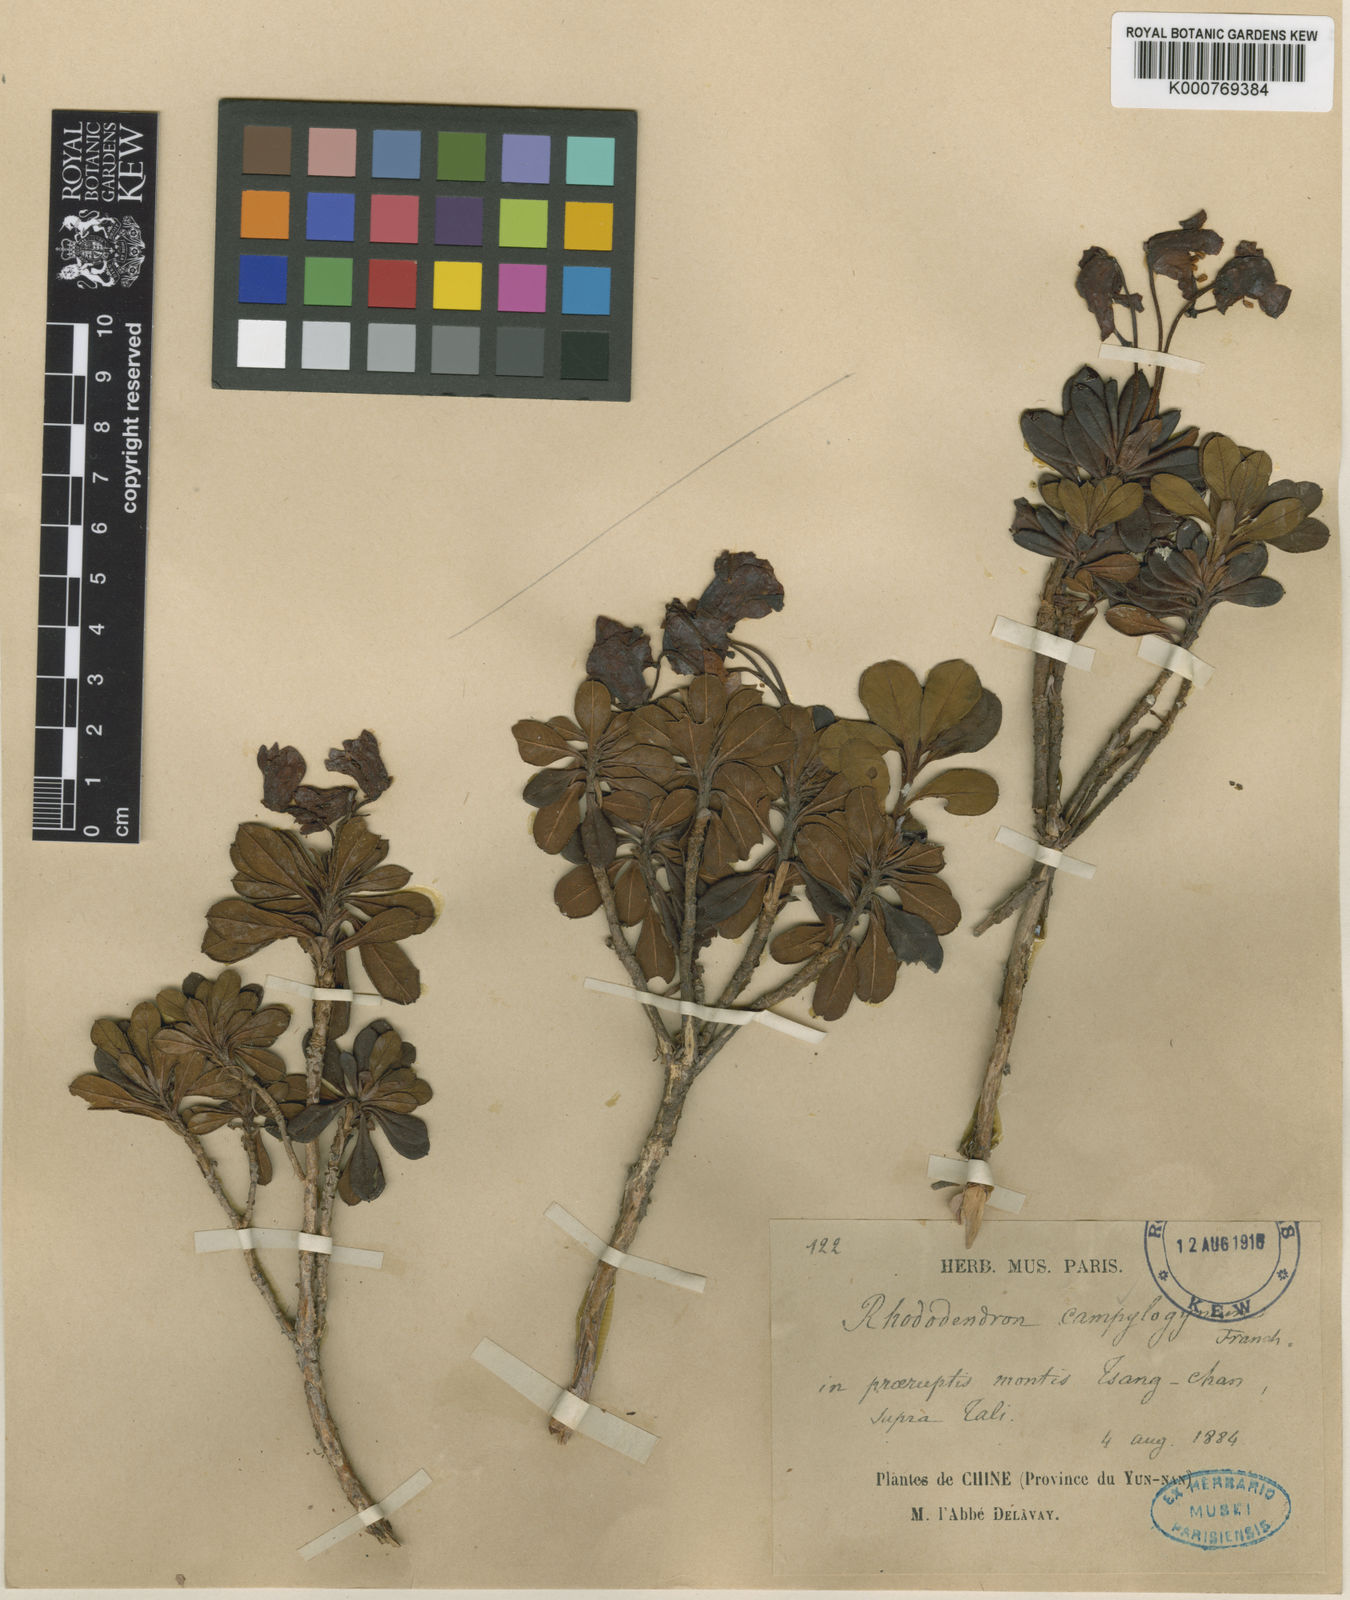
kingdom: Plantae
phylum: Tracheophyta
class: Magnoliopsida
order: Ericales
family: Ericaceae
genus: Rhododendron
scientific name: Rhododendron campylogynum
